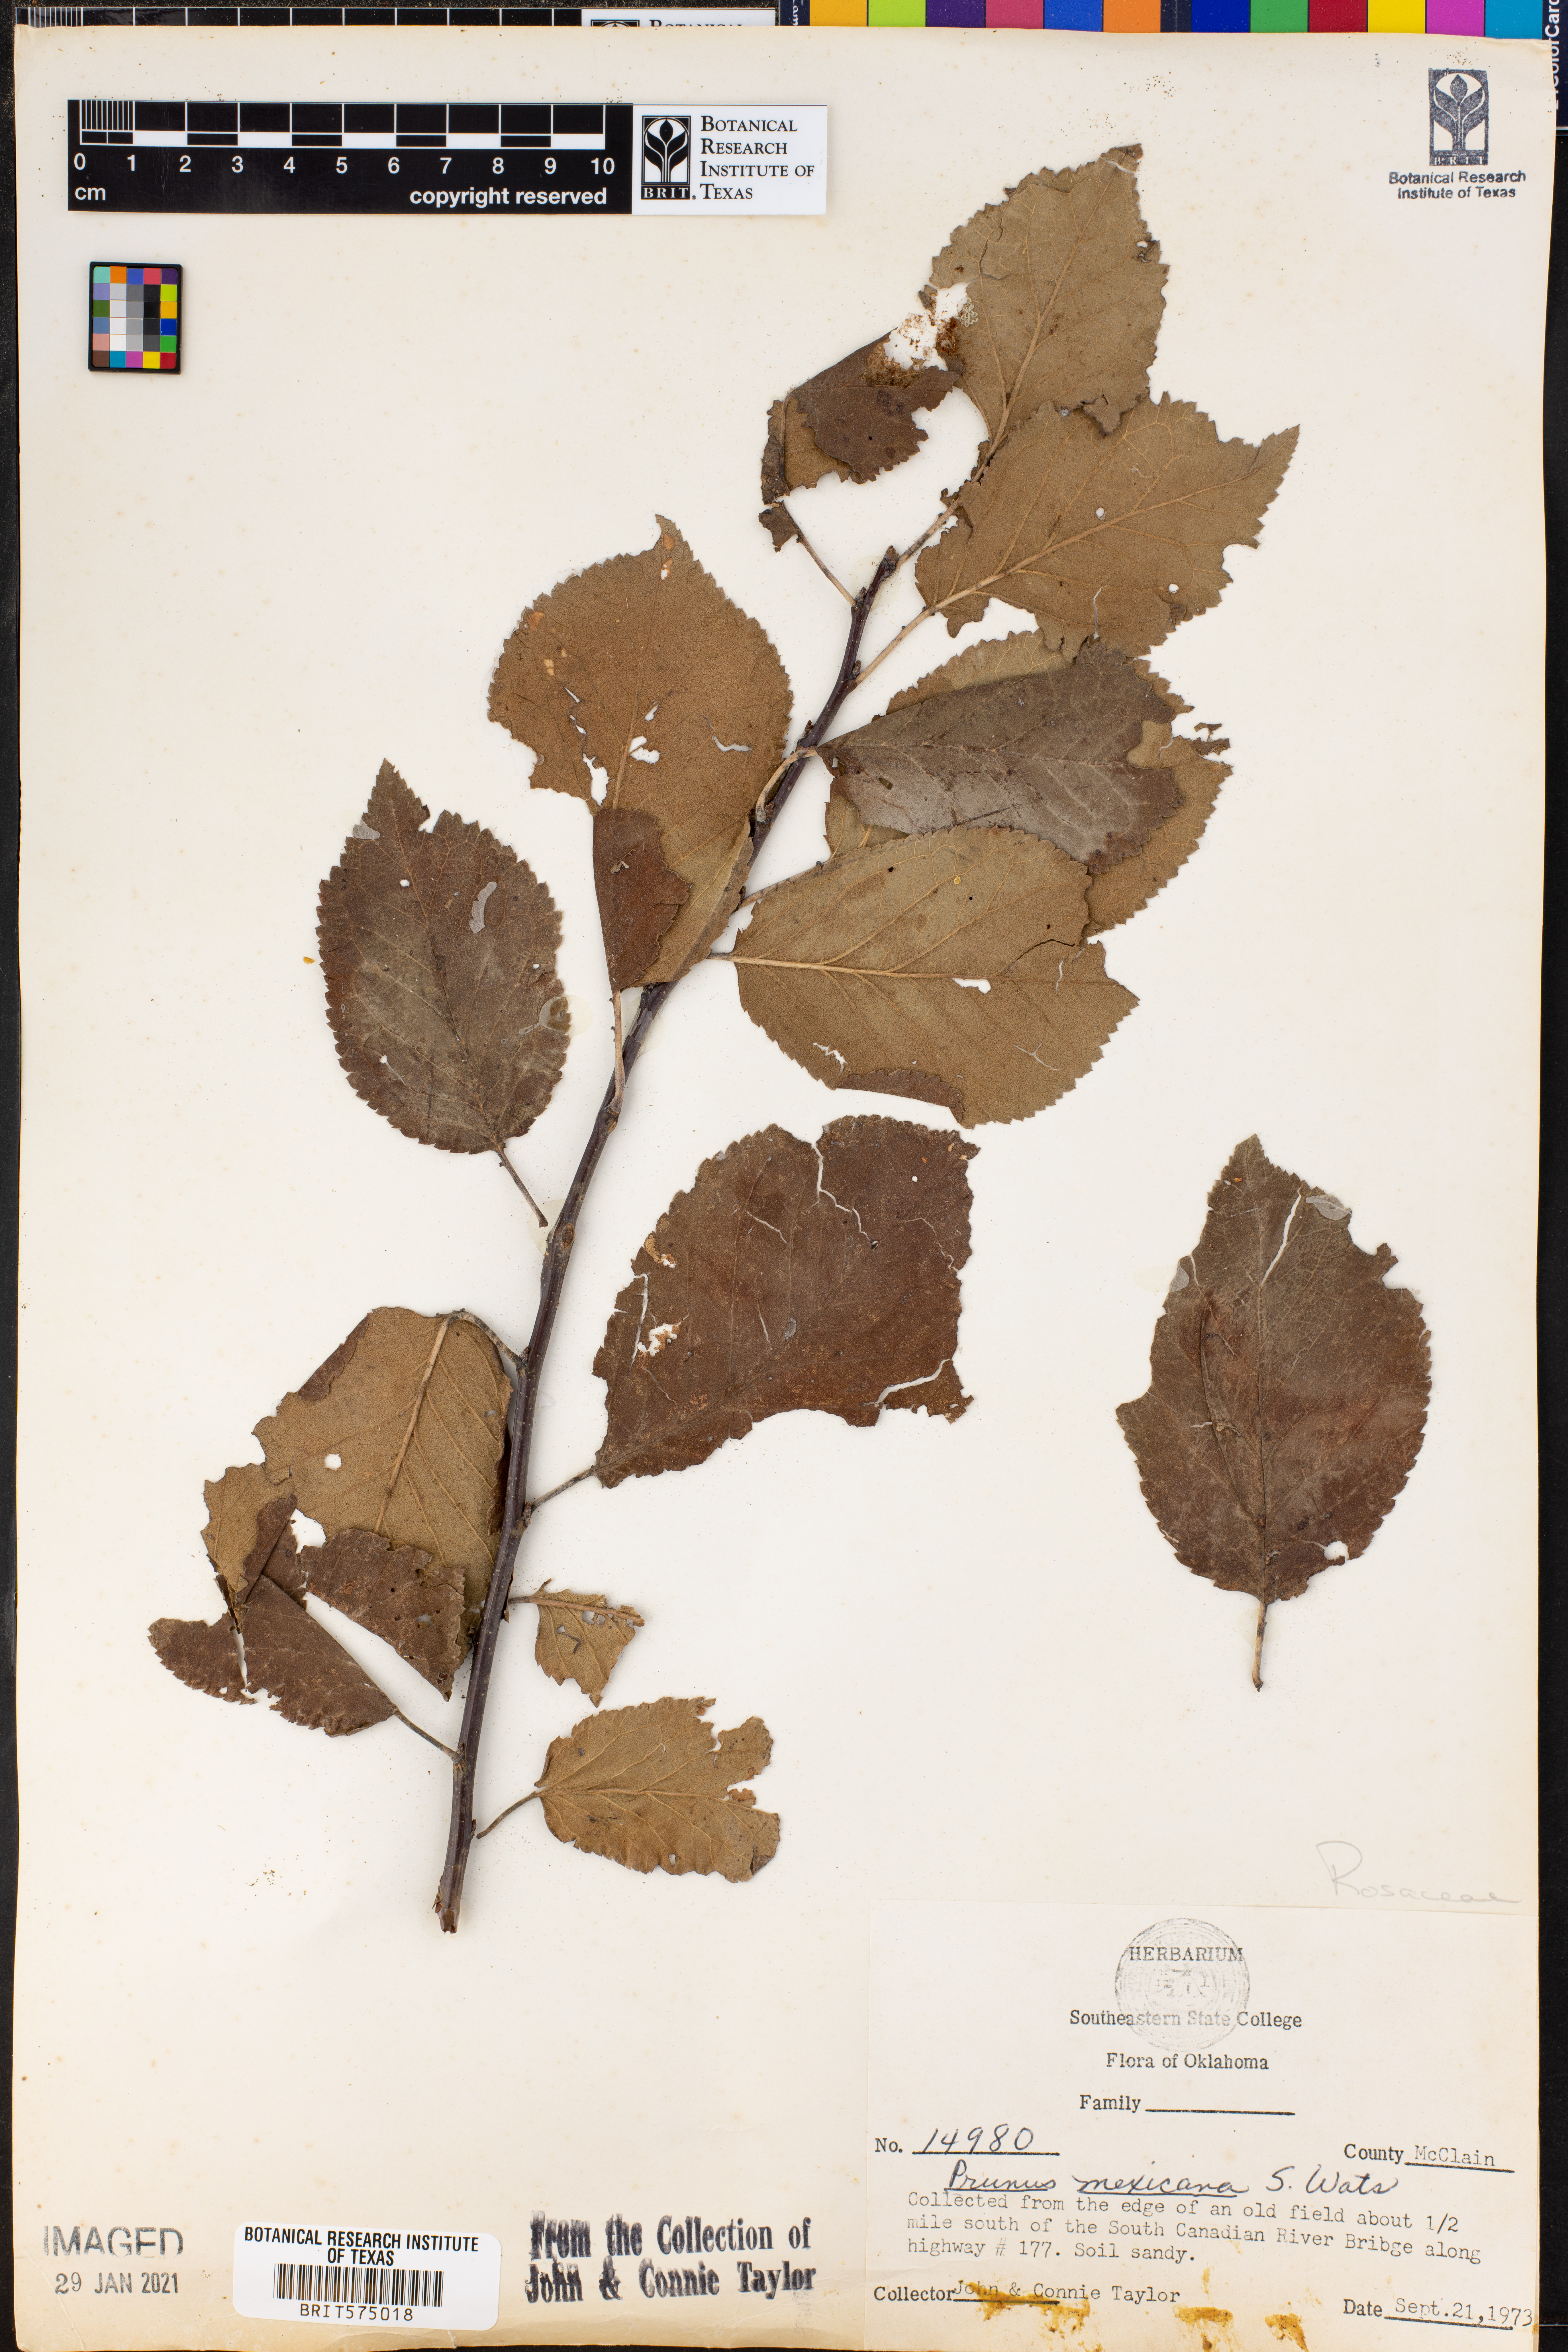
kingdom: Plantae
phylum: Tracheophyta
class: Magnoliopsida
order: Rosales
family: Rosaceae
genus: Prunus
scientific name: Prunus mexicana
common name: Mexican plum
